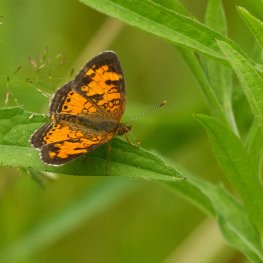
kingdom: Animalia
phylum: Arthropoda
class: Insecta
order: Lepidoptera
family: Nymphalidae
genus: Phyciodes
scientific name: Phyciodes tharos
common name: Northern Crescent
